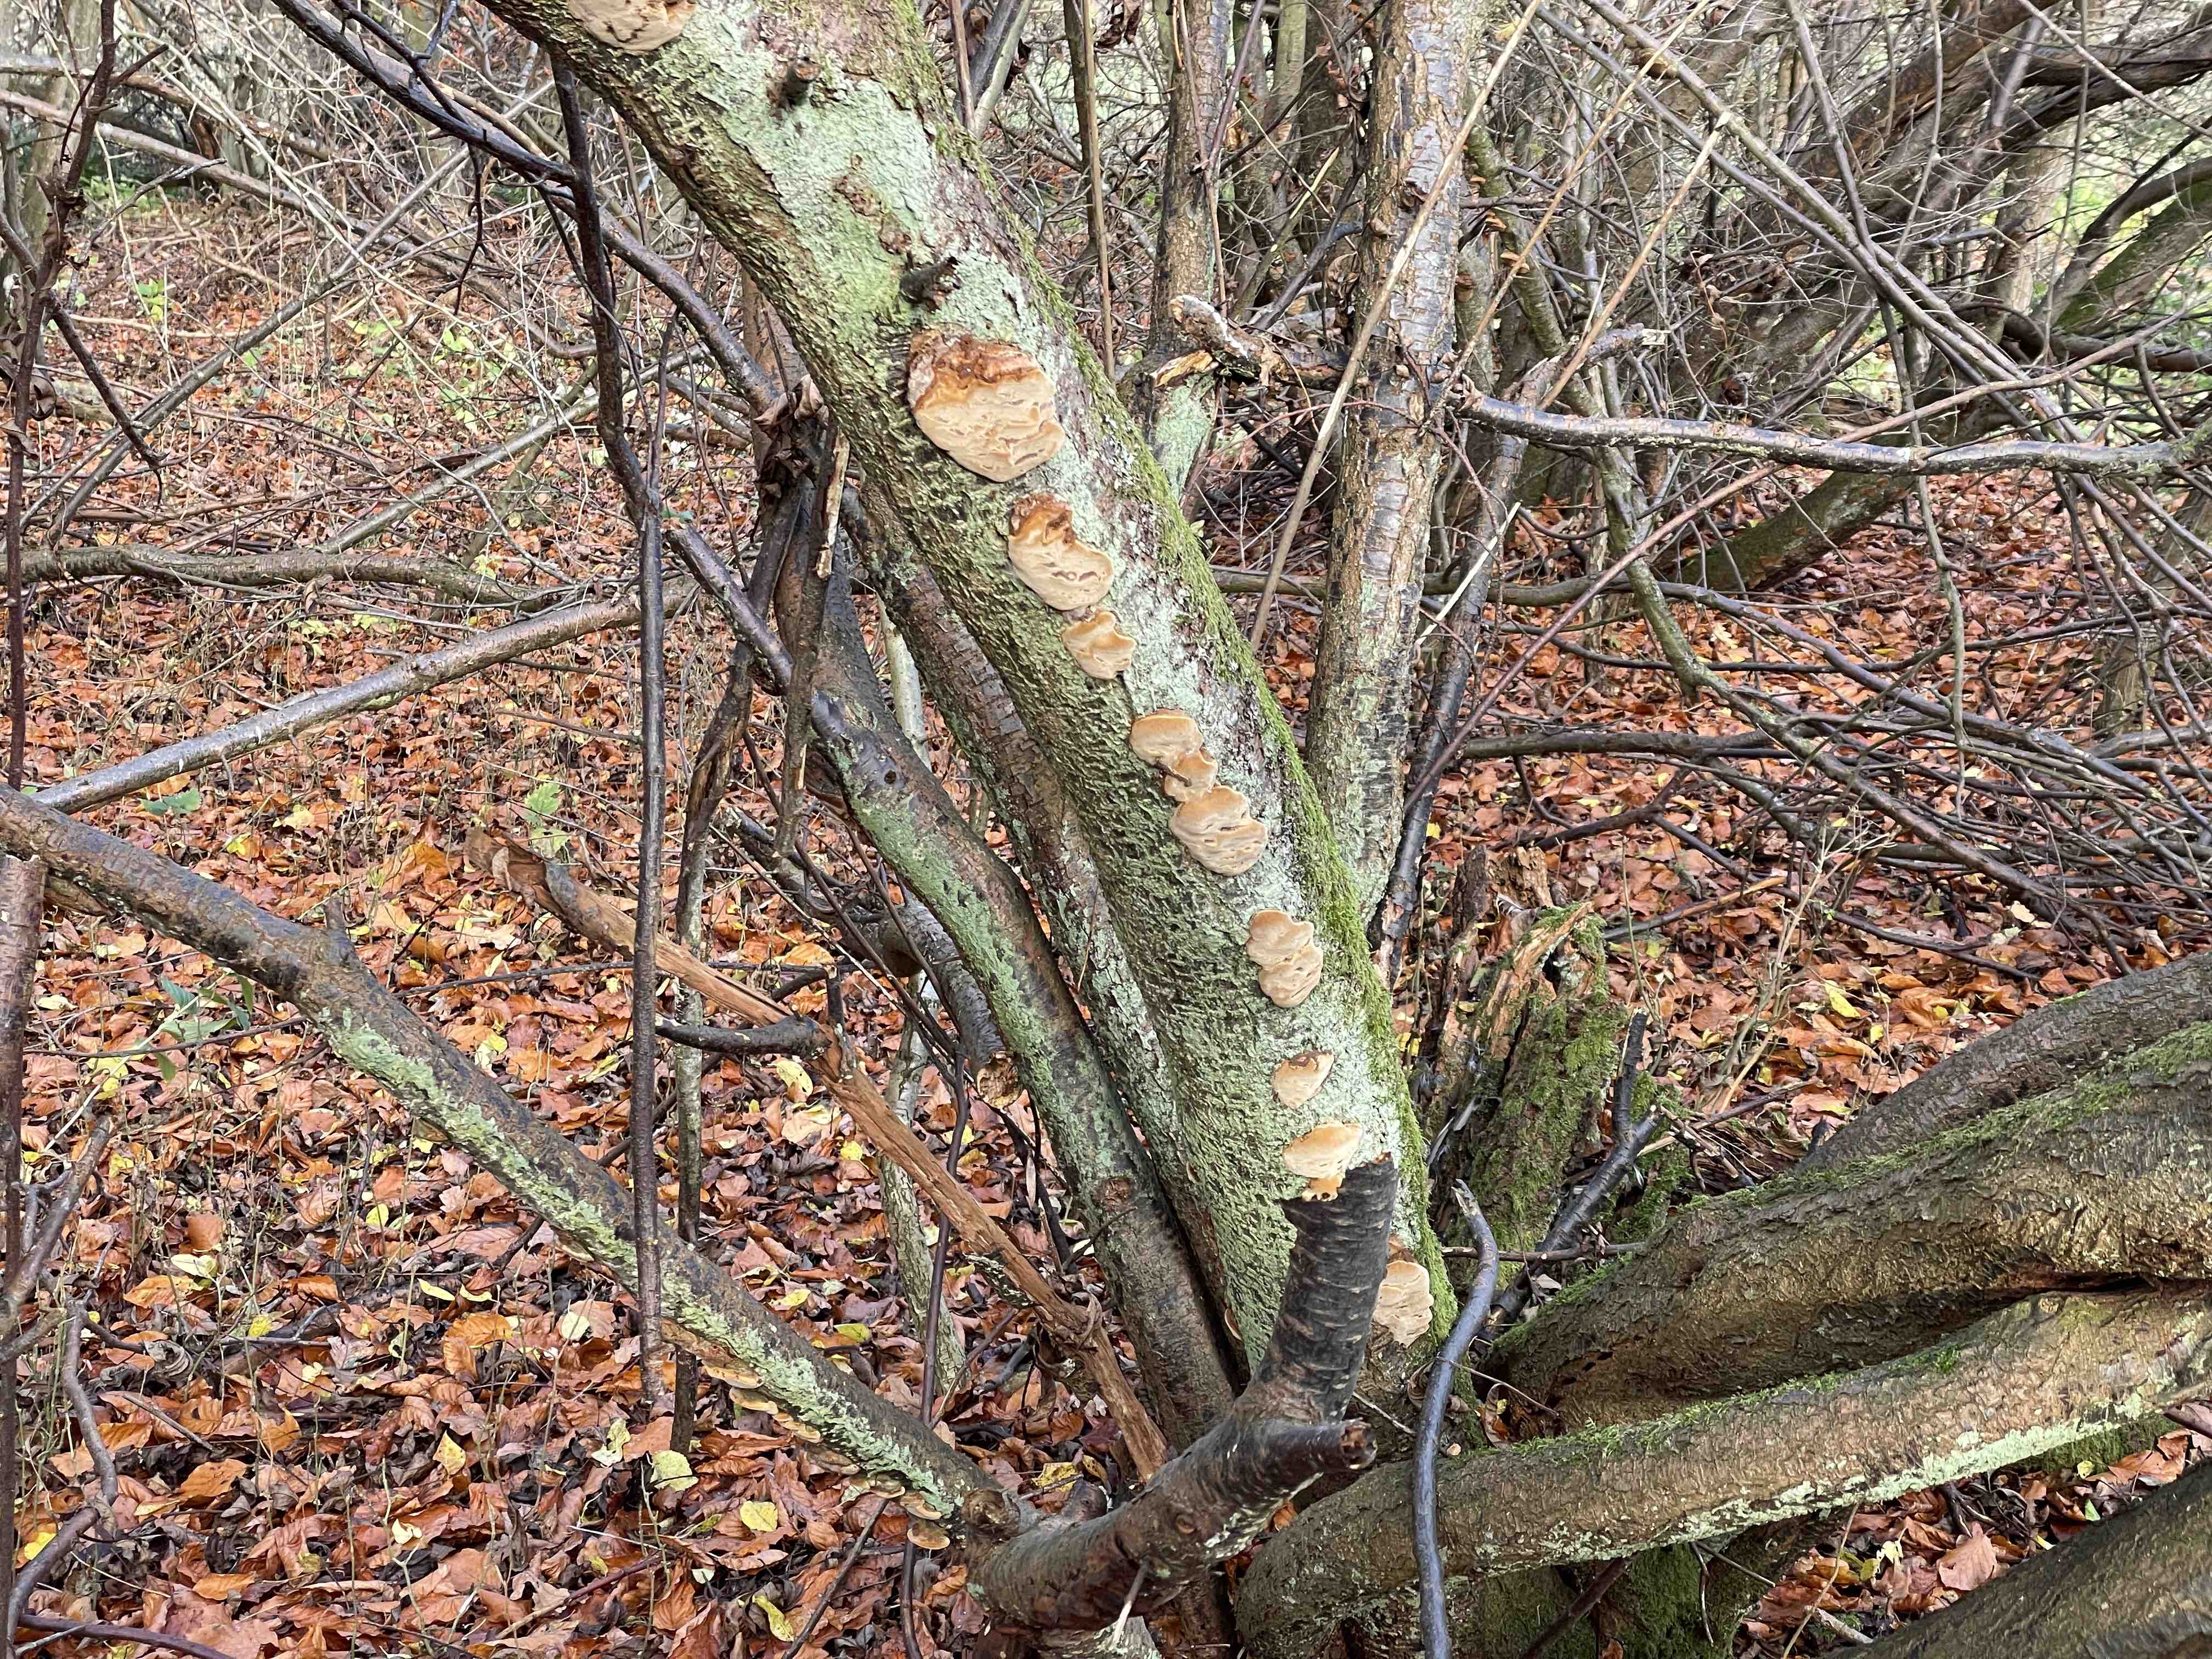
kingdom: Fungi
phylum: Basidiomycota
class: Agaricomycetes
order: Hymenochaetales
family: Hymenochaetaceae
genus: Phellinus
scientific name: Phellinus pomaceus
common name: blomme-ildporesvamp
